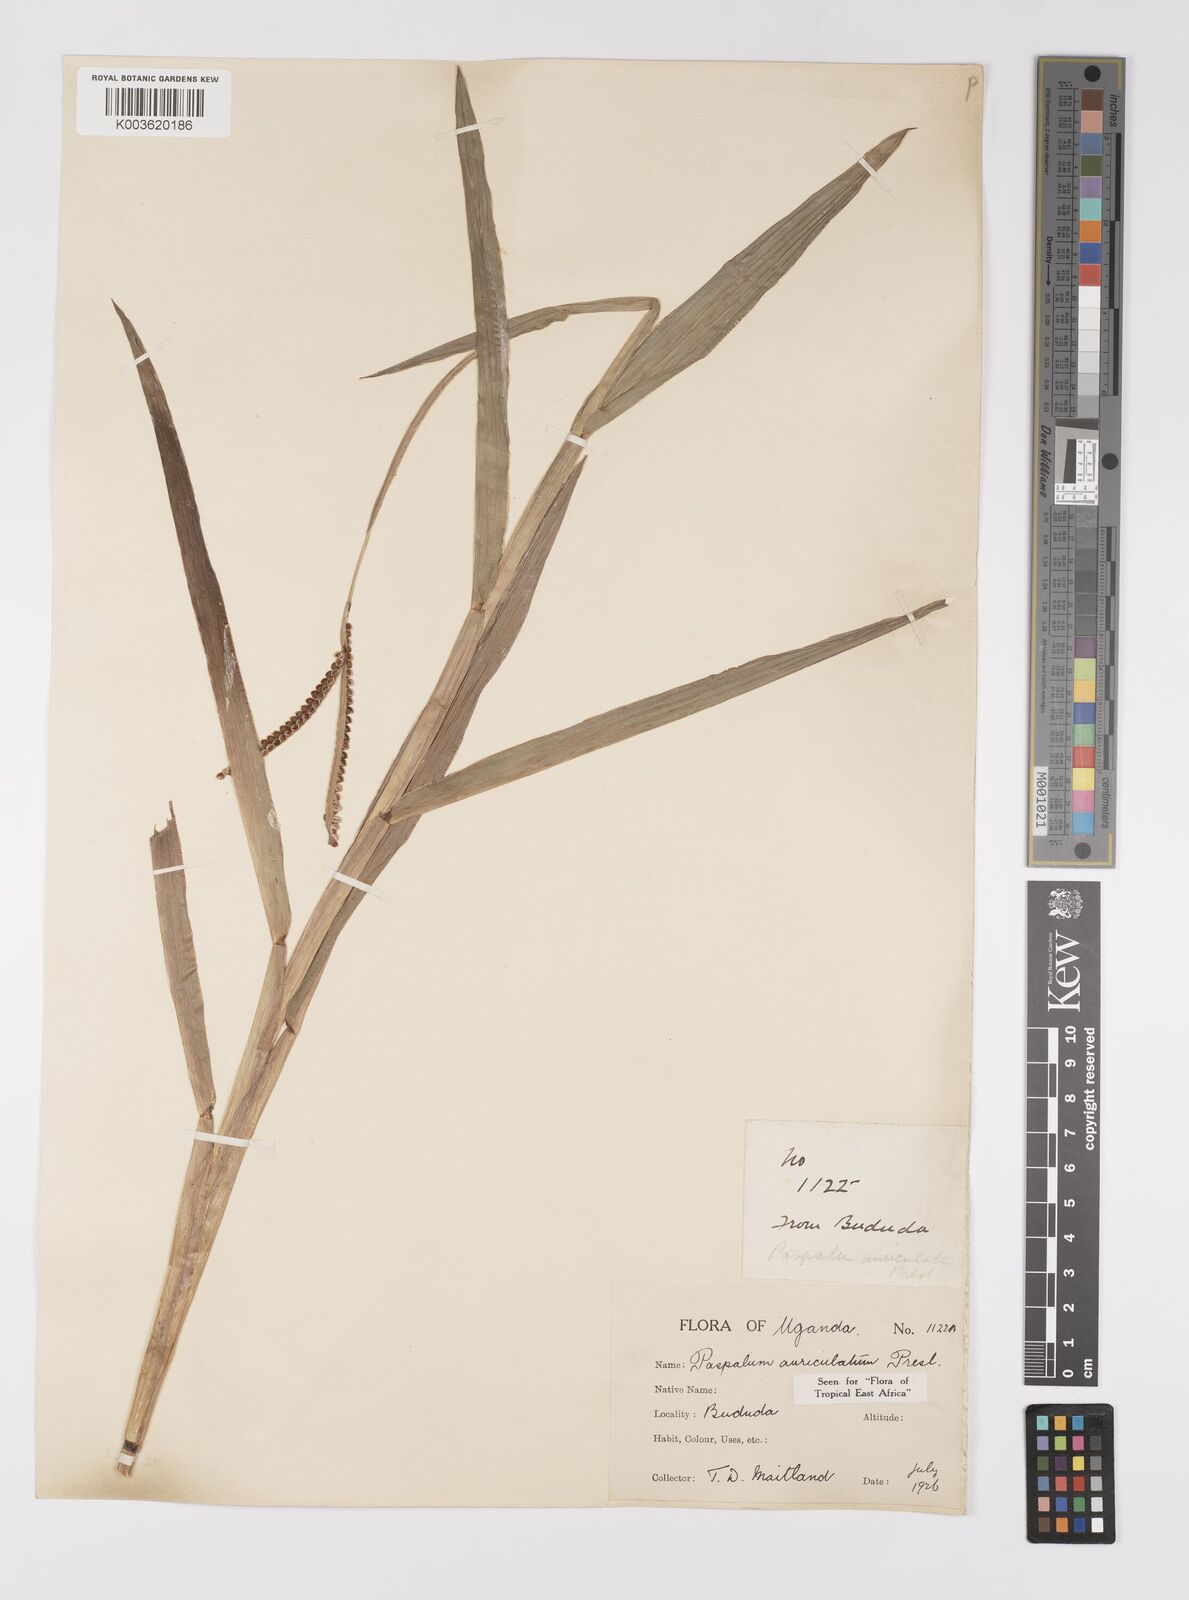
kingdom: Plantae
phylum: Tracheophyta
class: Liliopsida
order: Poales
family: Poaceae
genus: Paspalum
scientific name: Paspalum lamprocaryon
